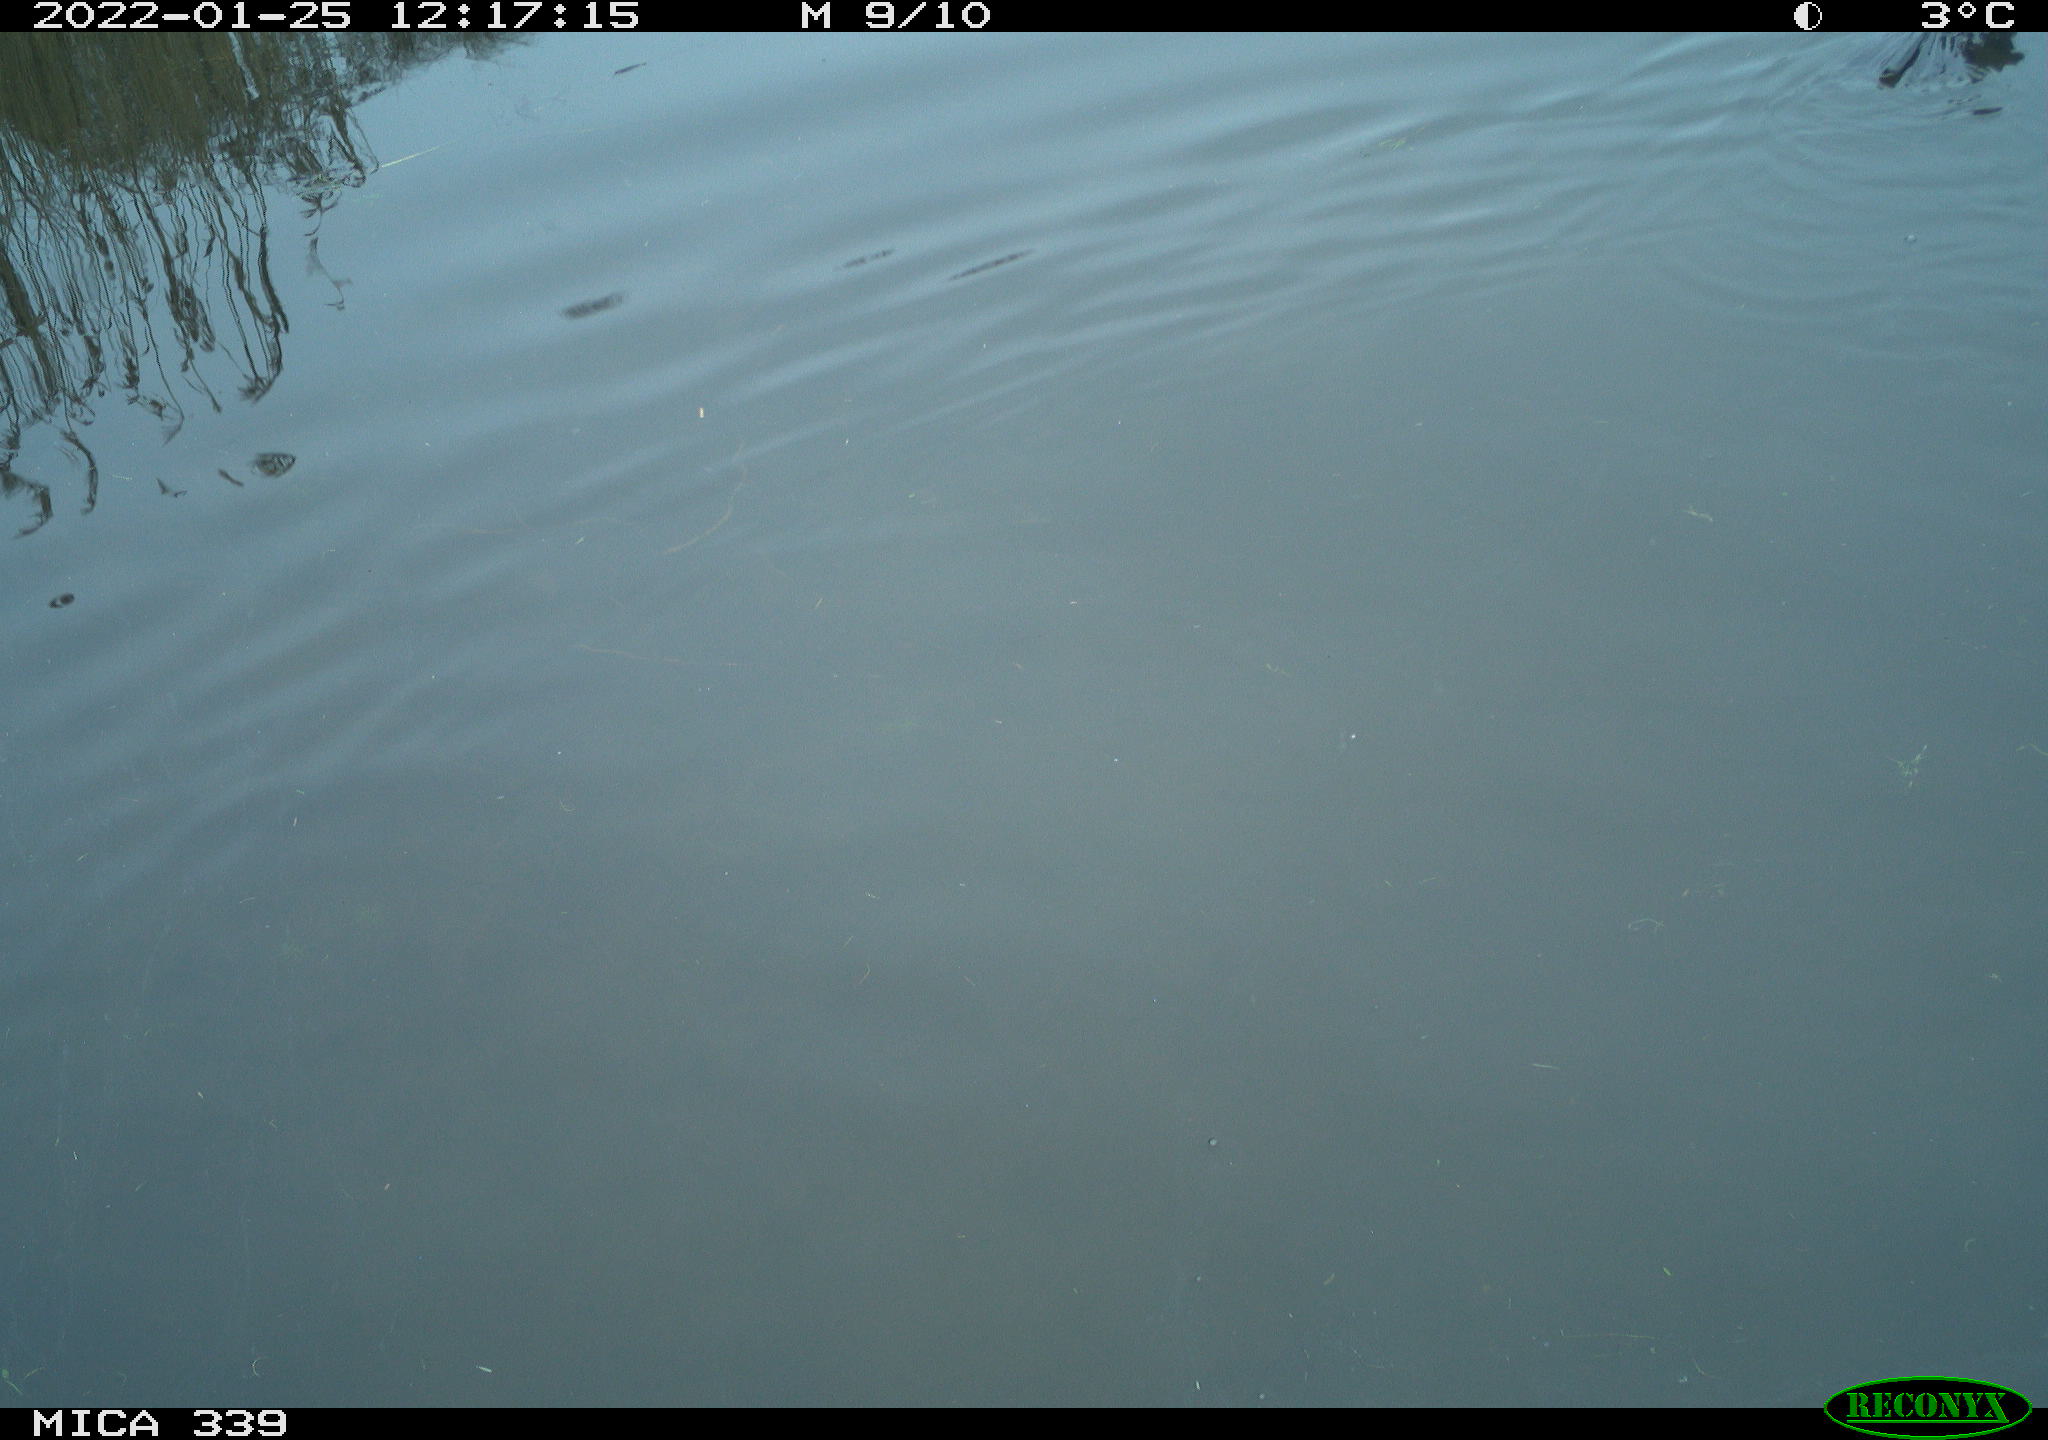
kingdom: Animalia
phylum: Chordata
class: Aves
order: Suliformes
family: Phalacrocoracidae
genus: Phalacrocorax
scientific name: Phalacrocorax carbo
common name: Great cormorant
